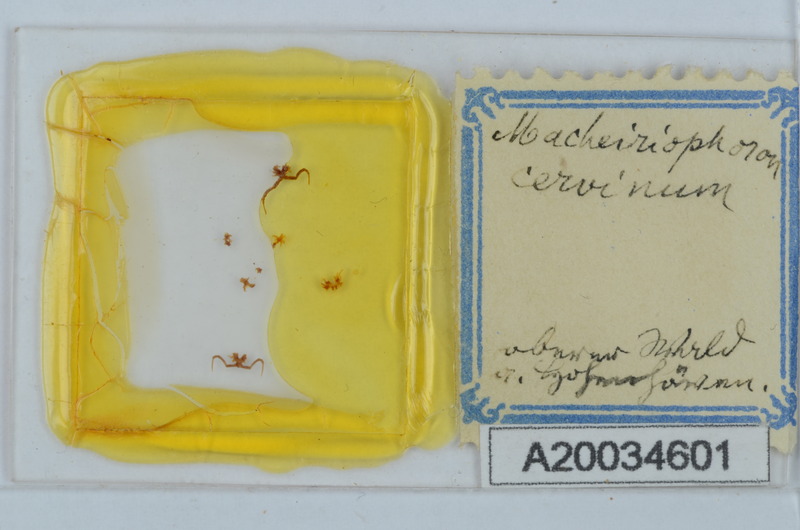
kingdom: Animalia
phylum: Arthropoda
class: Diplopoda
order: Chordeumatida
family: Craspedosomatidae
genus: Rhymogona
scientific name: Rhymogona montivaga
